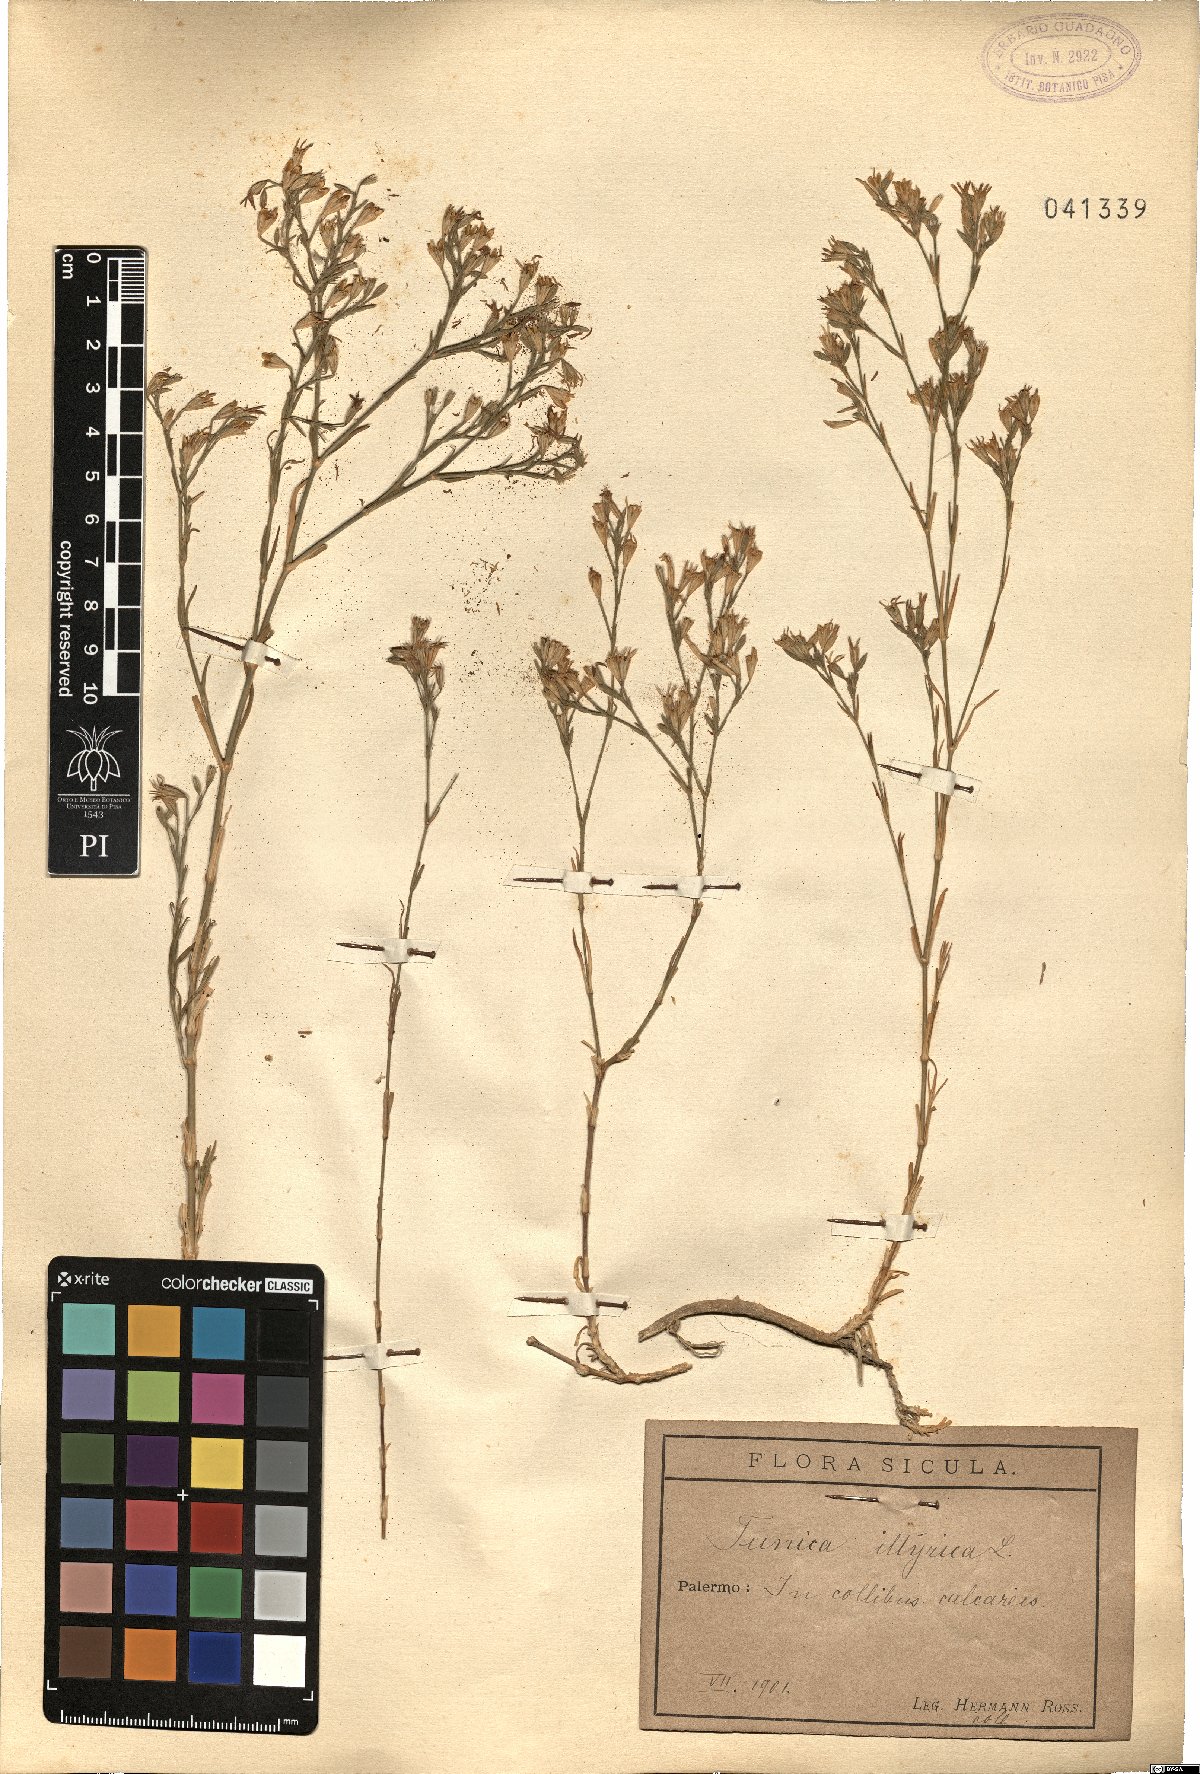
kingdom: Plantae
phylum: Tracheophyta
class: Magnoliopsida
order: Caryophyllales
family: Caryophyllaceae
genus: Dianthus
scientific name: Dianthus illyricus
